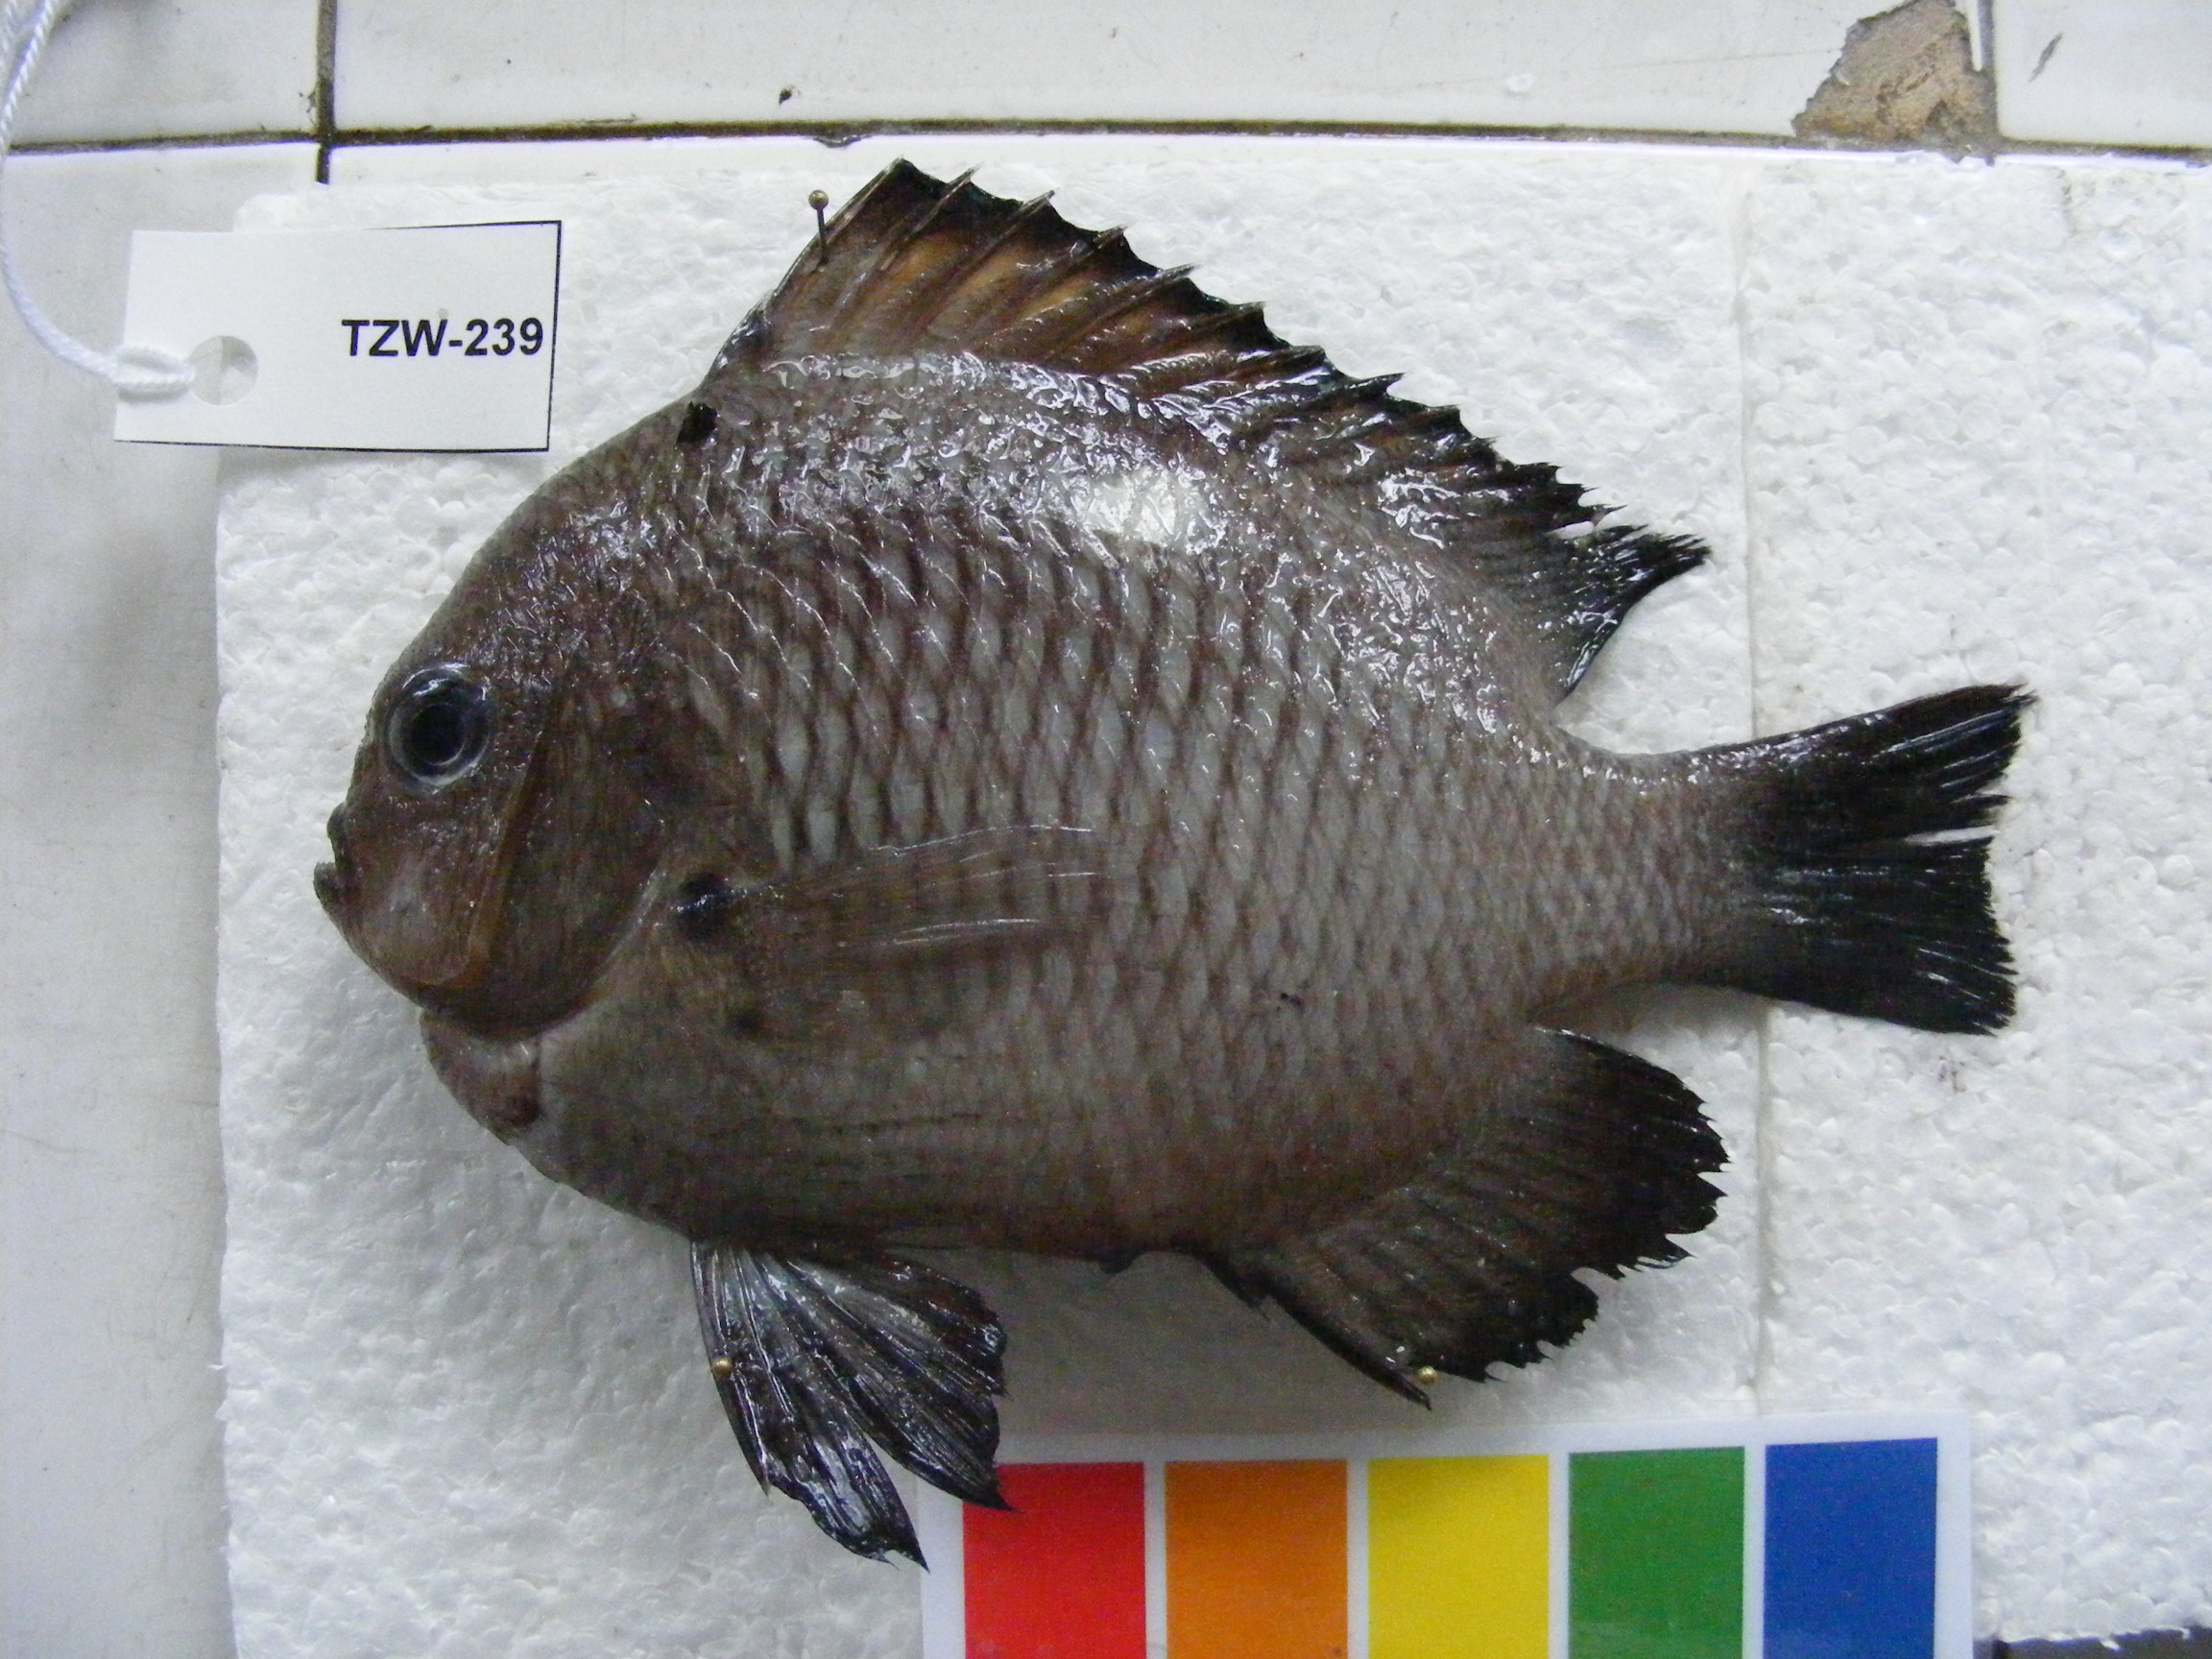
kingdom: Animalia
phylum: Chordata
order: Perciformes
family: Pomacentridae
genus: Dascyllus
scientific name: Dascyllus trimaculatus
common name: Threespot dascyllus
